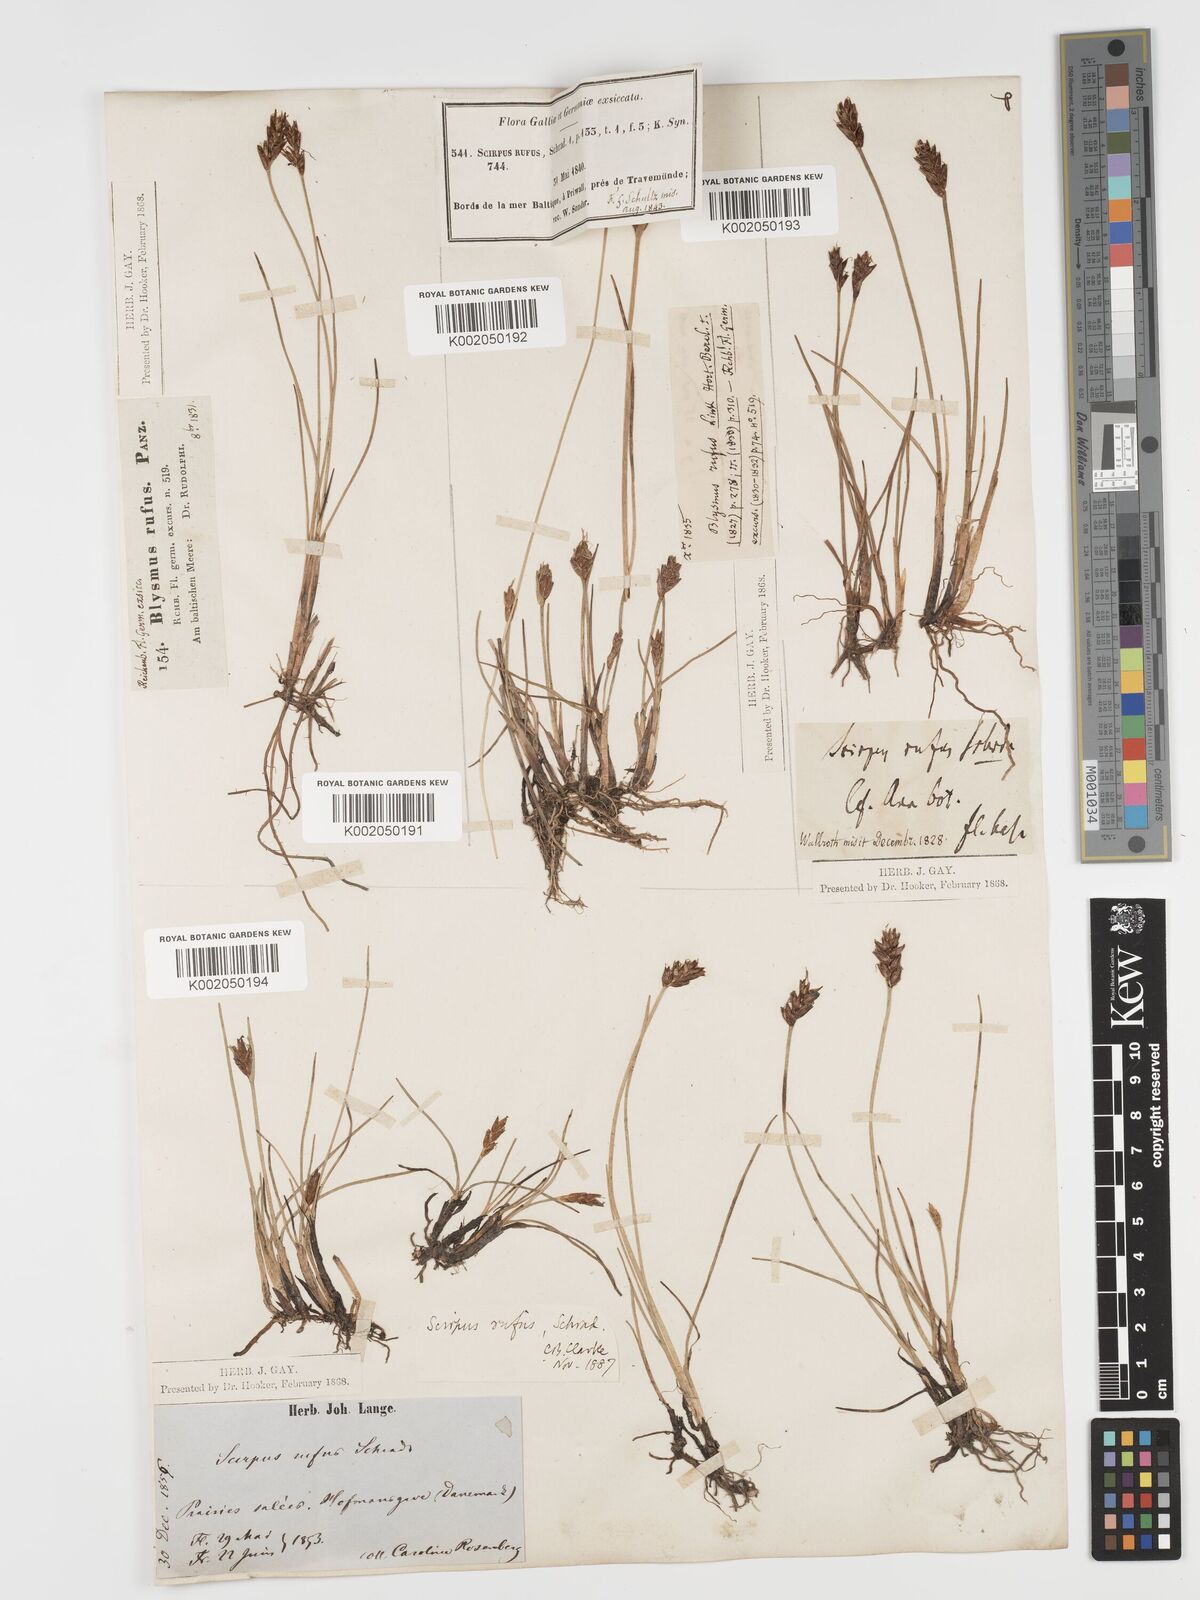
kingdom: Plantae
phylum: Tracheophyta
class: Liliopsida
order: Poales
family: Cyperaceae
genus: Blysmus
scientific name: Blysmus rufus
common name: Saltmarsh flat-sedge
